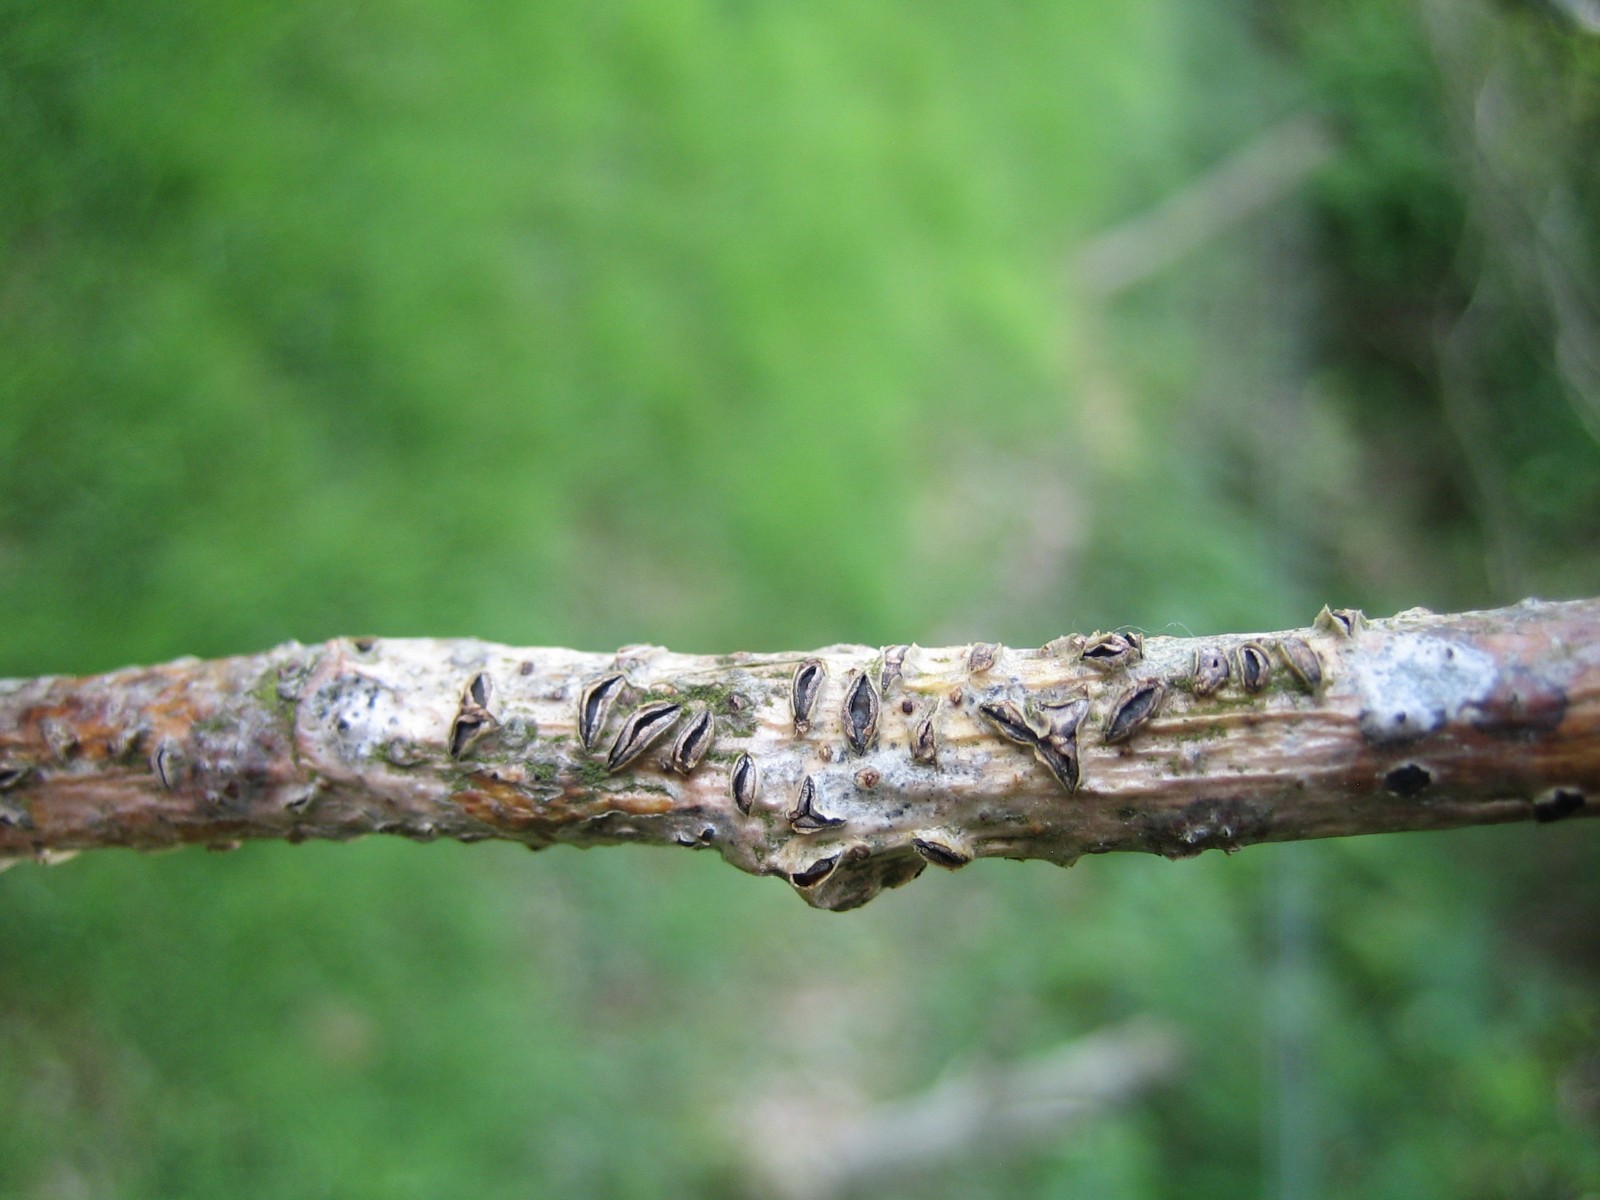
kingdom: Fungi
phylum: Ascomycota
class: Leotiomycetes
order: Rhytismatales
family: Rhytismataceae
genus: Colpoma
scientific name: Colpoma quercinum
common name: ege-sprækkeskive
